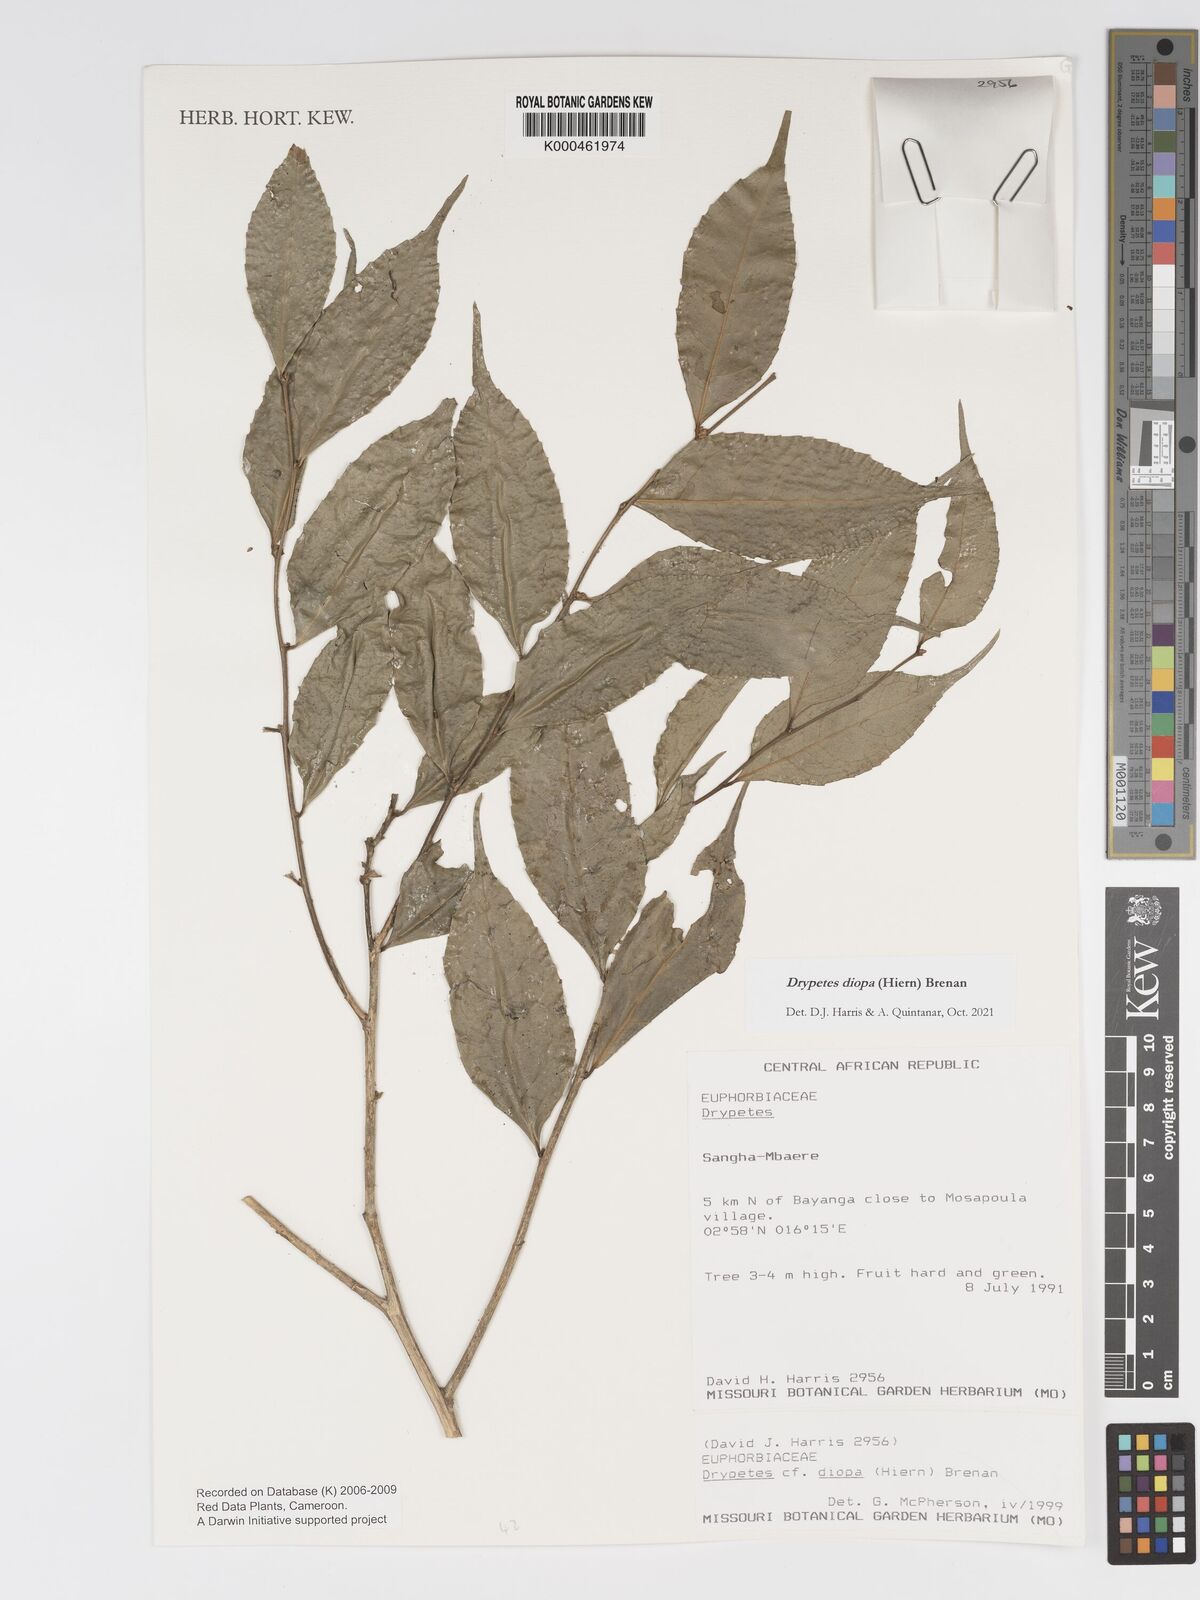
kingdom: Plantae
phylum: Tracheophyta
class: Magnoliopsida
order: Malpighiales
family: Putranjivaceae
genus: Drypetes
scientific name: Drypetes diopa
